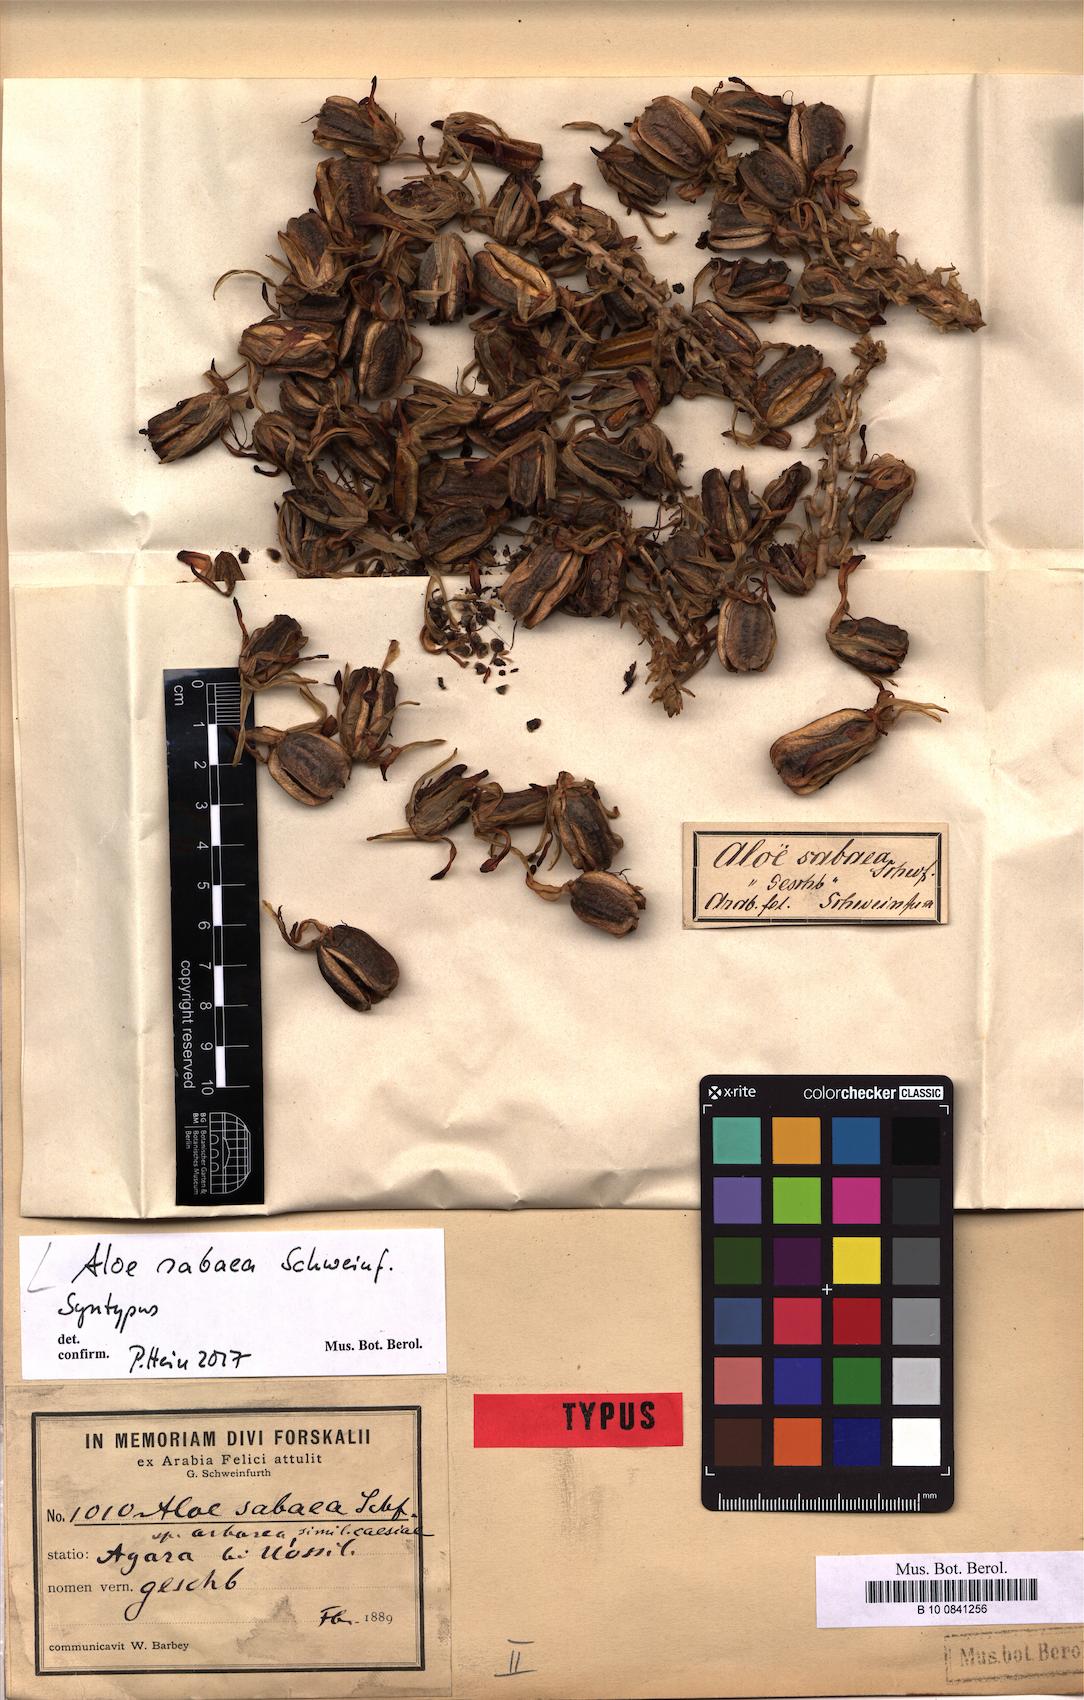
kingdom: Plantae
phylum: Tracheophyta
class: Liliopsida
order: Asparagales
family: Asphodelaceae
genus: Aloidendron
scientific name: Aloidendron sabaeum
